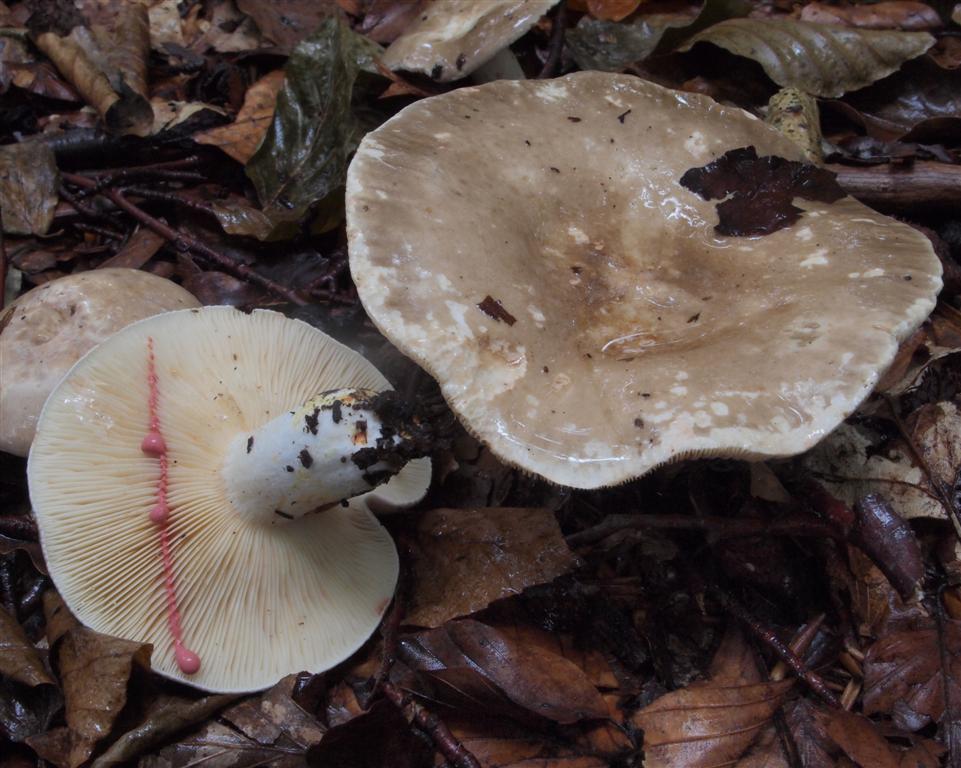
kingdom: Fungi
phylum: Basidiomycota
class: Agaricomycetes
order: Russulales
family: Russulaceae
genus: Lactarius
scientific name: Lactarius acris
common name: rosamælket mælkehat
